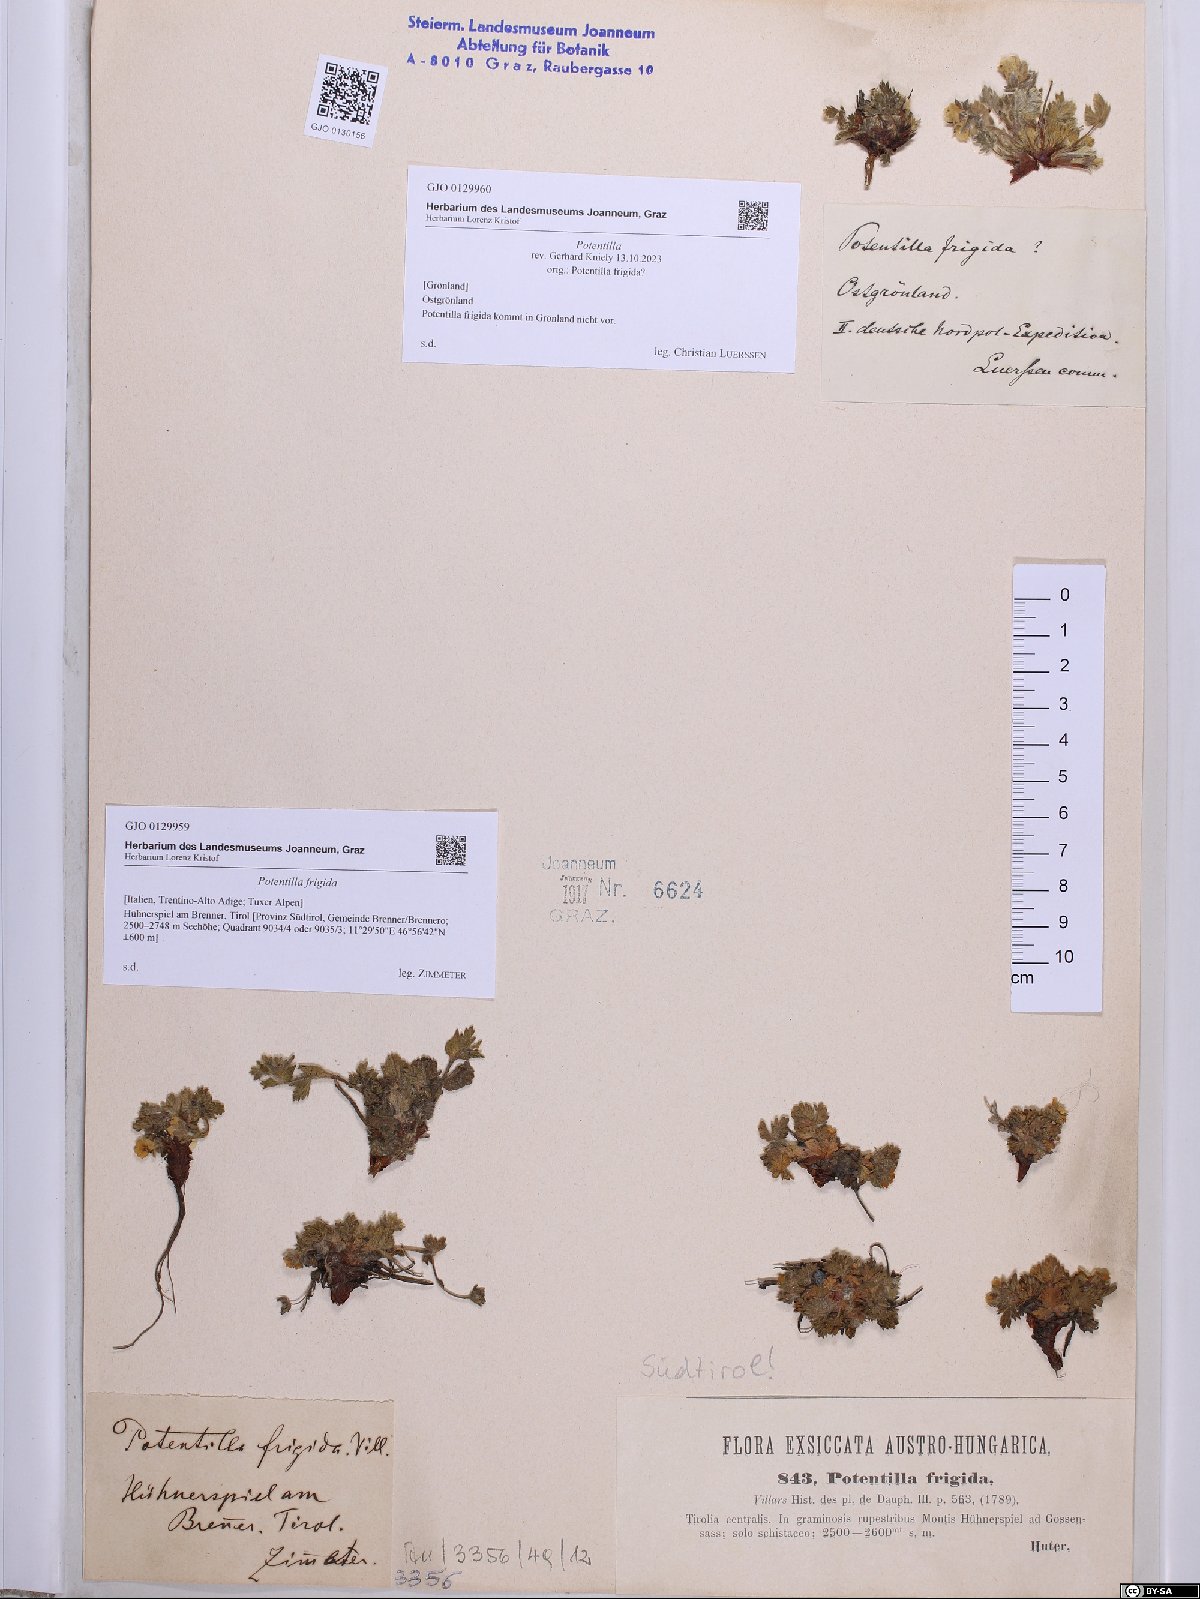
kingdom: Plantae
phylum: Tracheophyta
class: Magnoliopsida
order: Rosales
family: Rosaceae
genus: Potentilla
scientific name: Potentilla frigida
